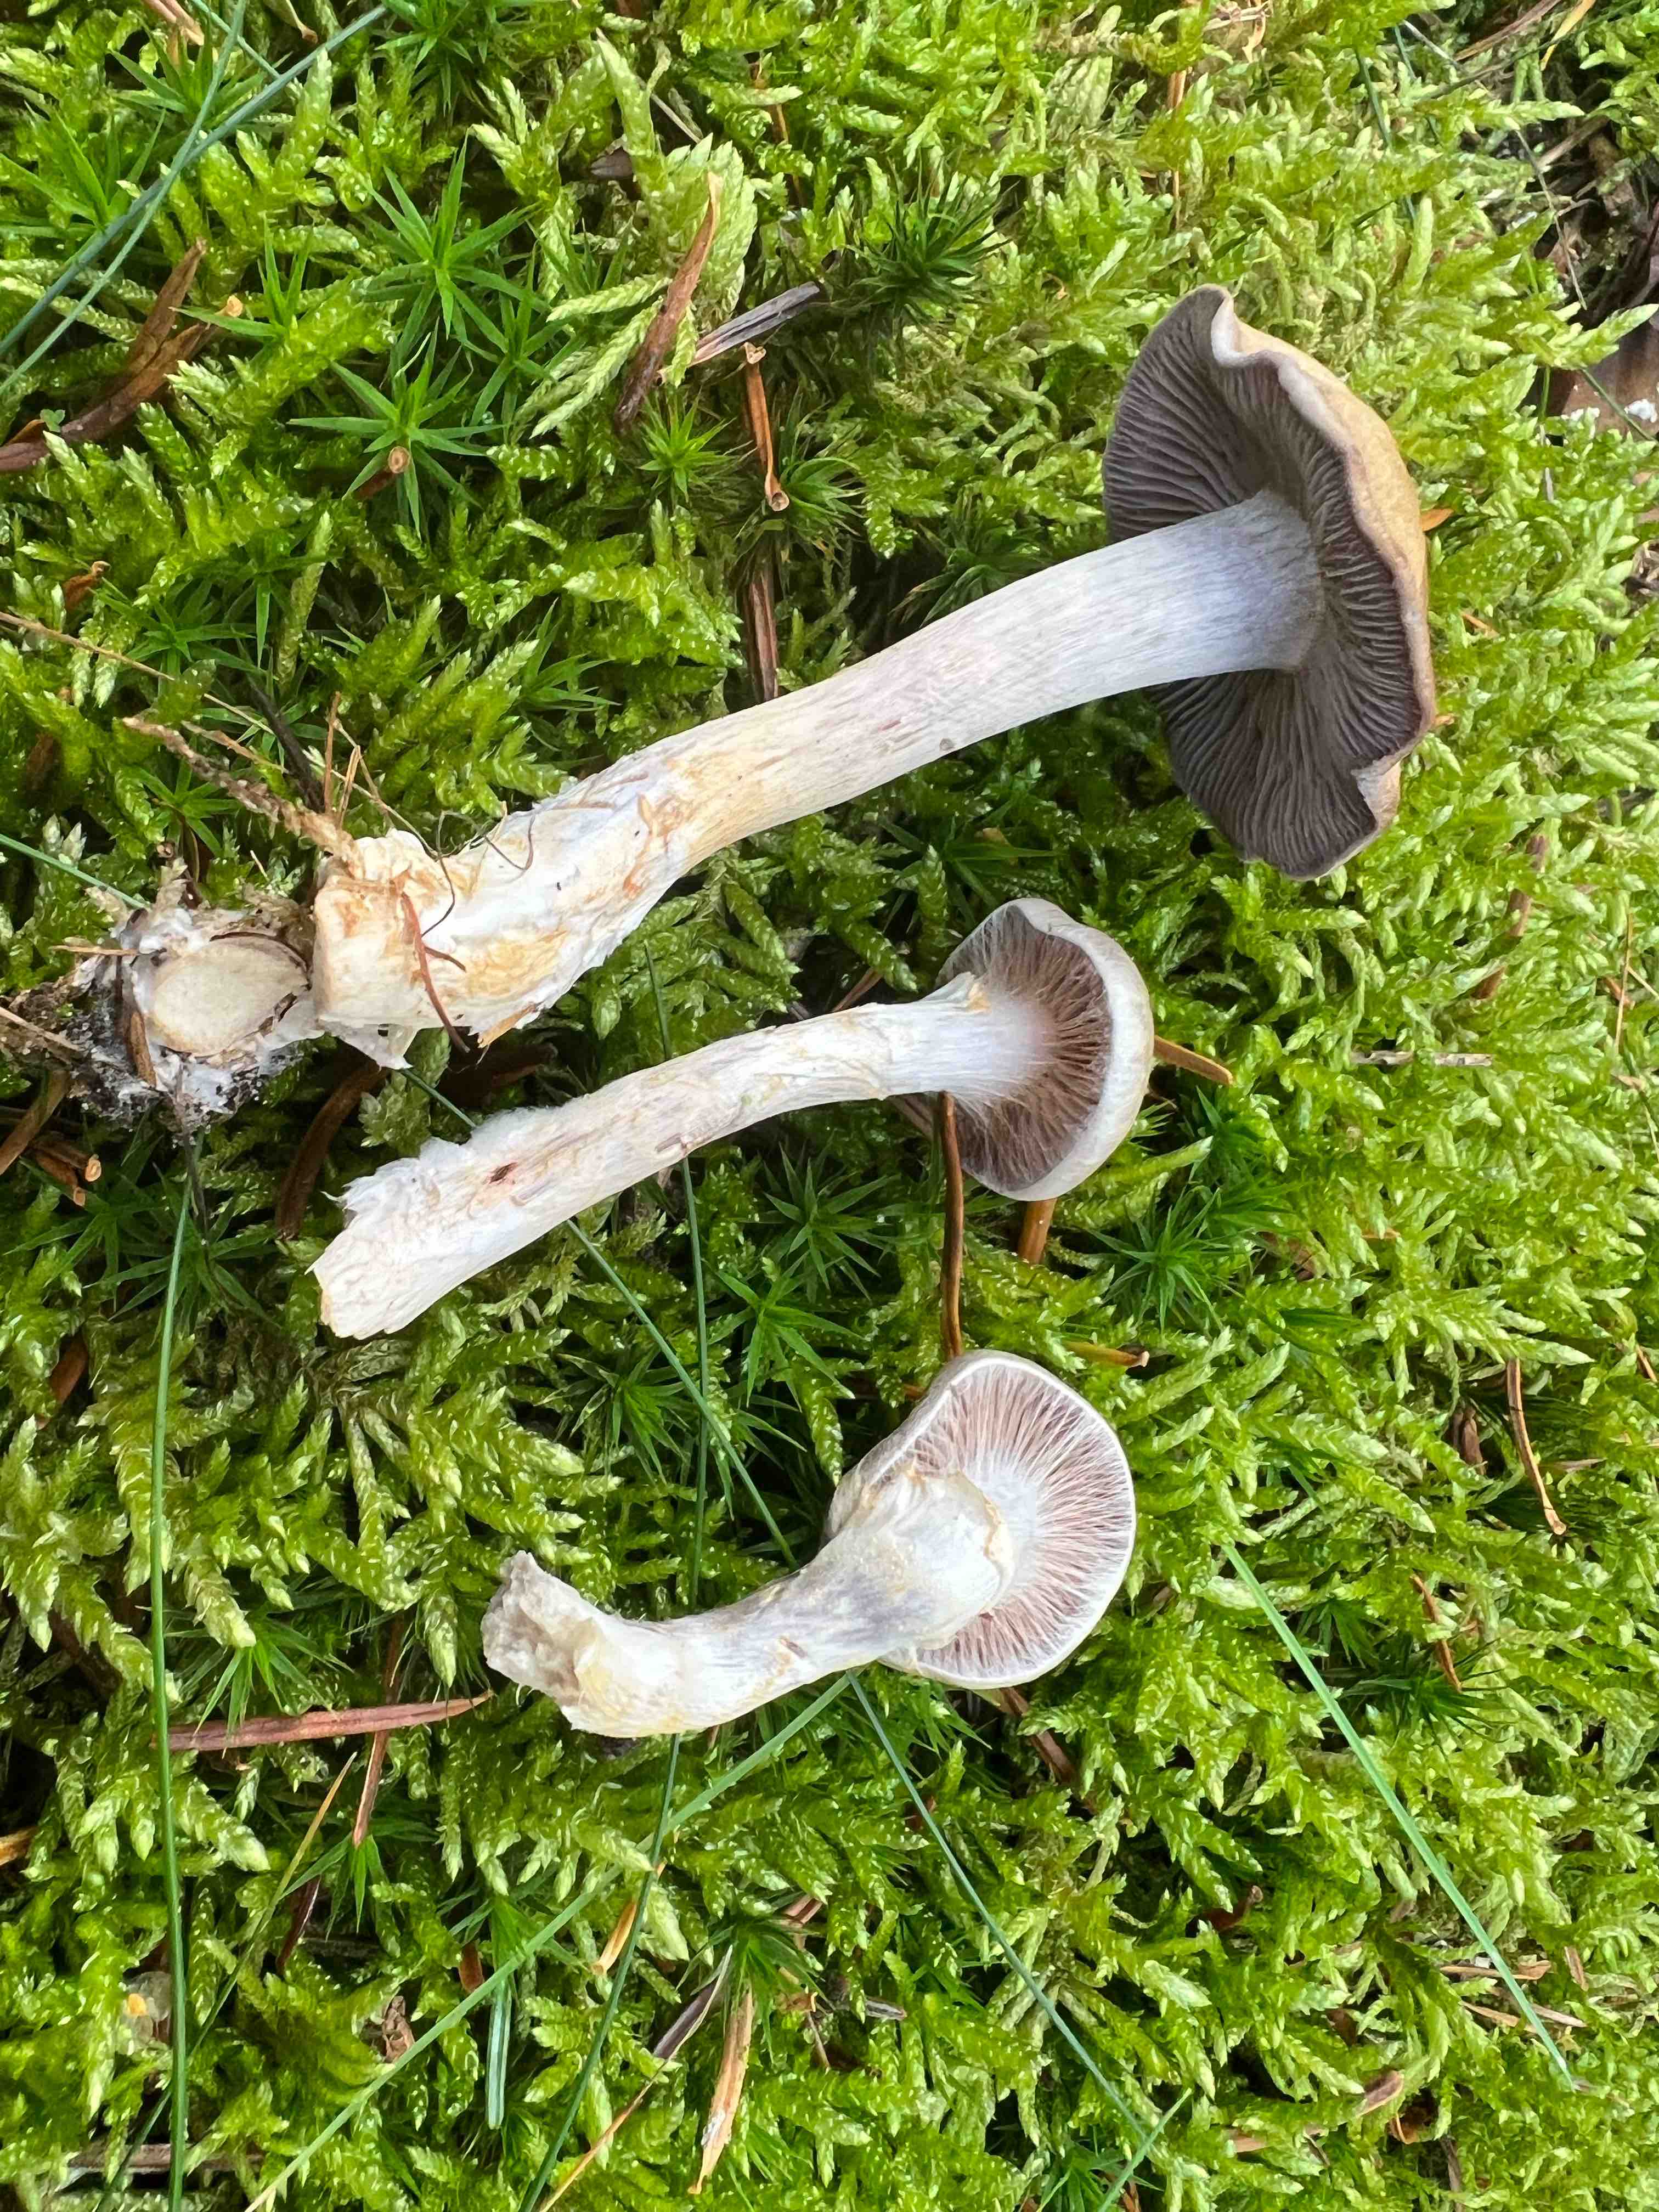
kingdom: Fungi
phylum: Basidiomycota
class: Agaricomycetes
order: Agaricales
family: Cortinariaceae
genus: Cortinarius
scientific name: Cortinarius
